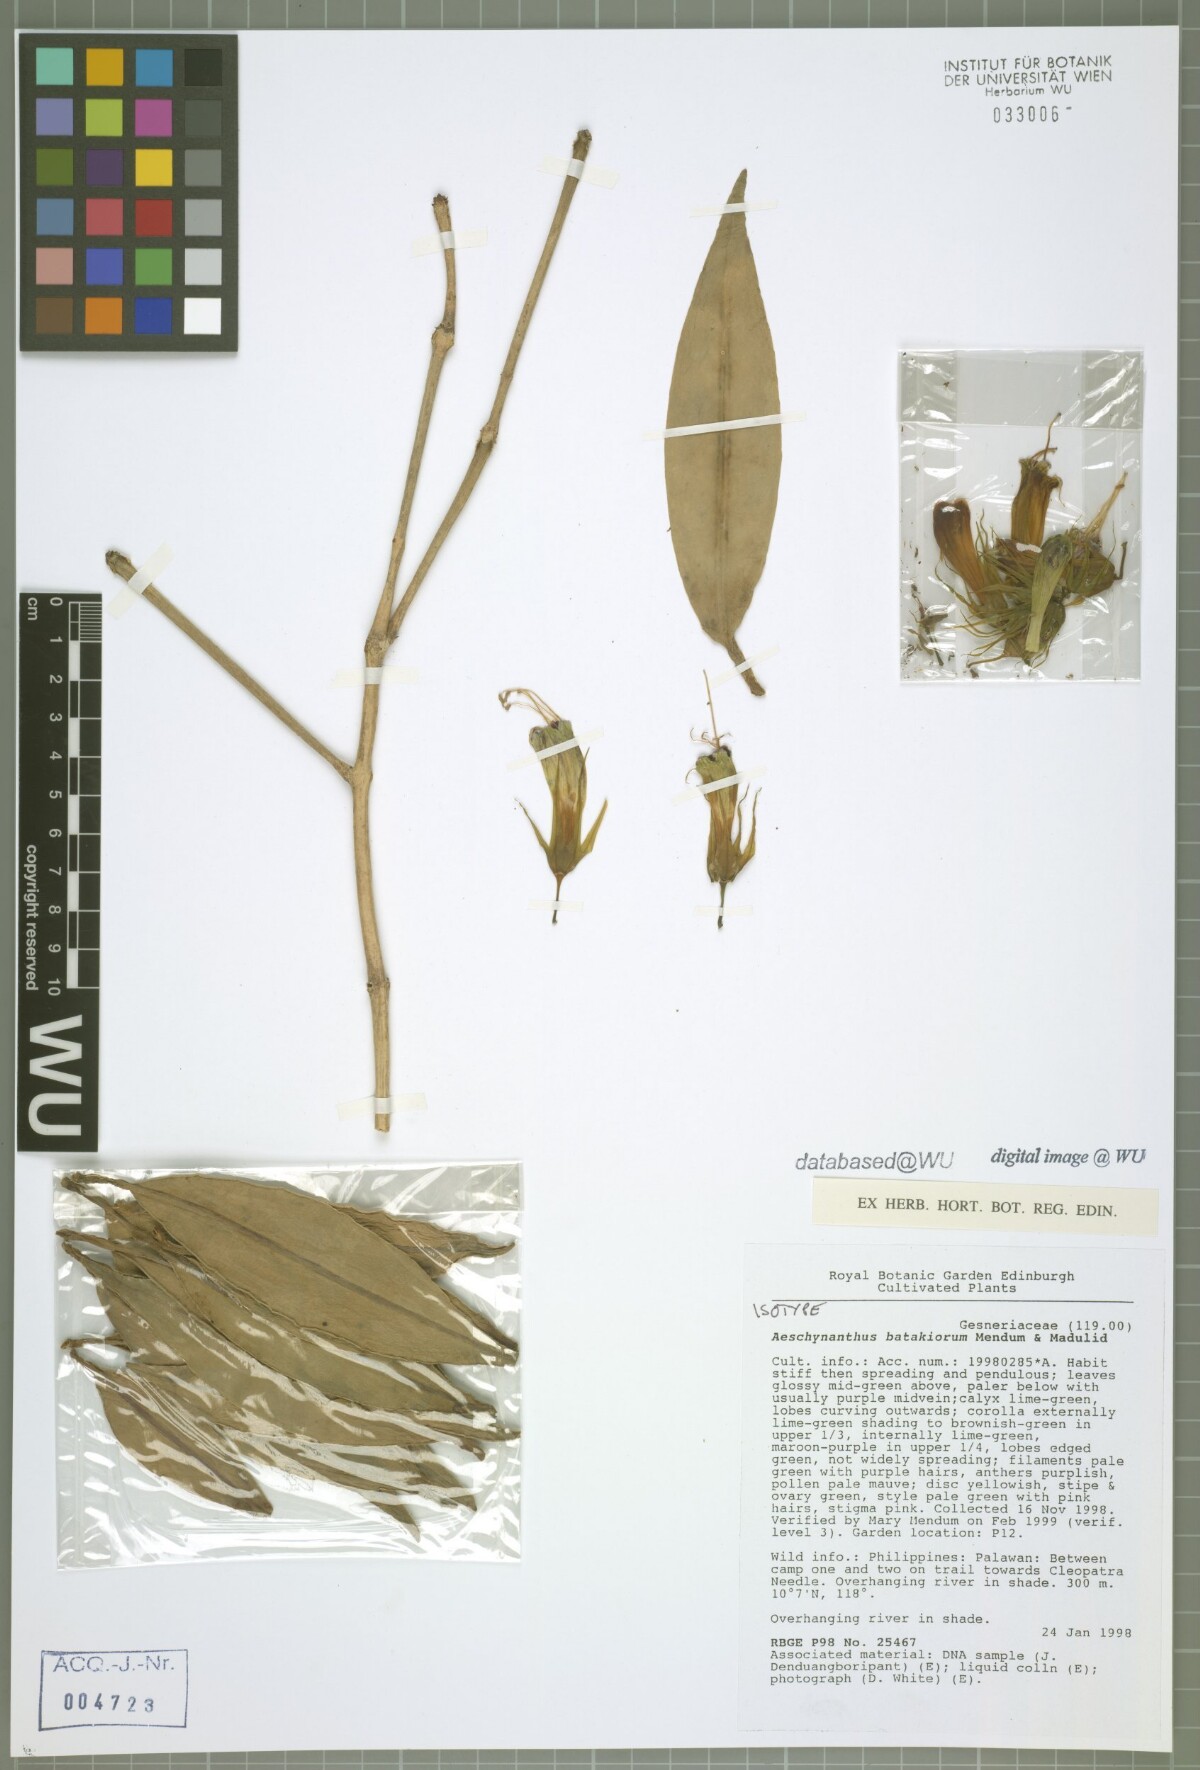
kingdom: Plantae
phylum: Tracheophyta
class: Magnoliopsida
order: Lamiales
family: Gesneriaceae
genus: Aeschynanthus
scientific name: Aeschynanthus batakiorum
